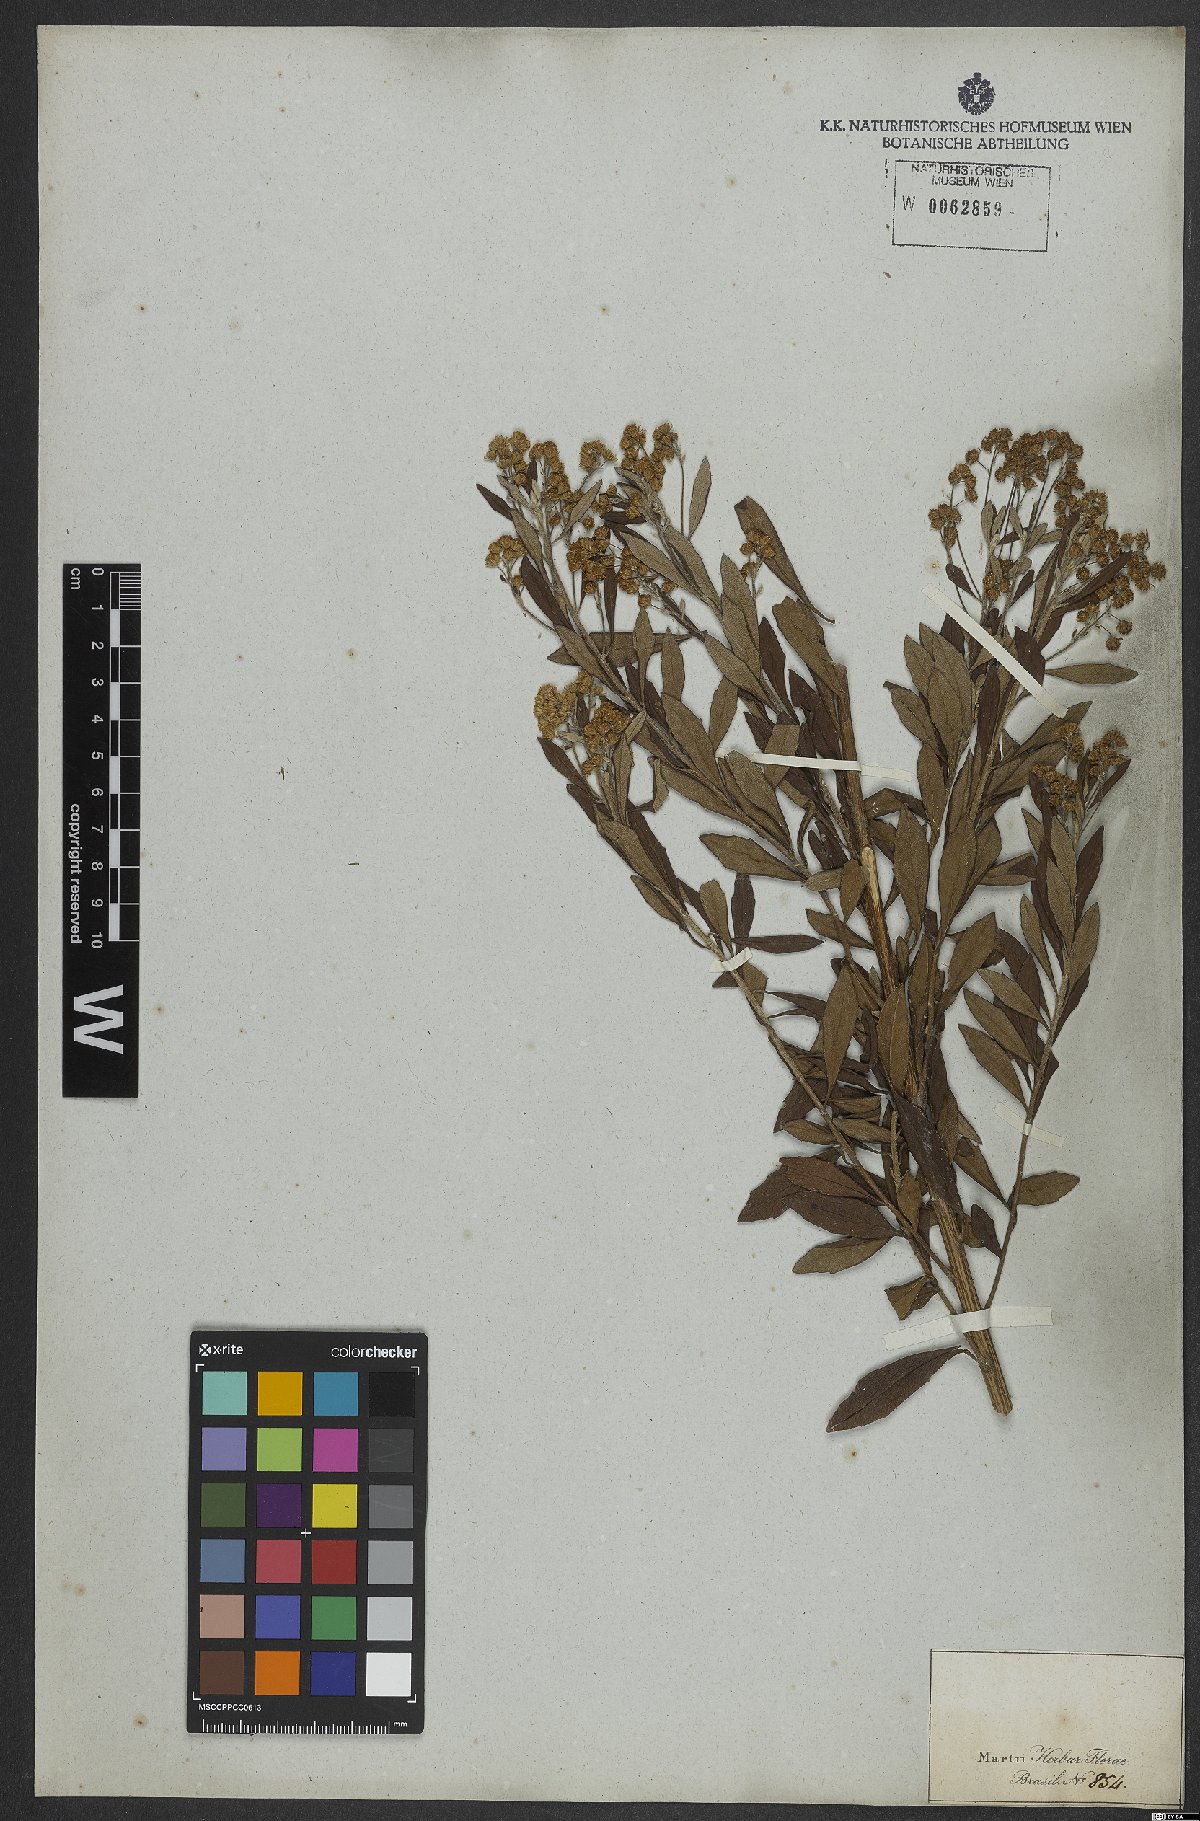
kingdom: Plantae
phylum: Tracheophyta
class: Magnoliopsida
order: Asterales
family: Asteraceae
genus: Baccharis
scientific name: Baccharis
